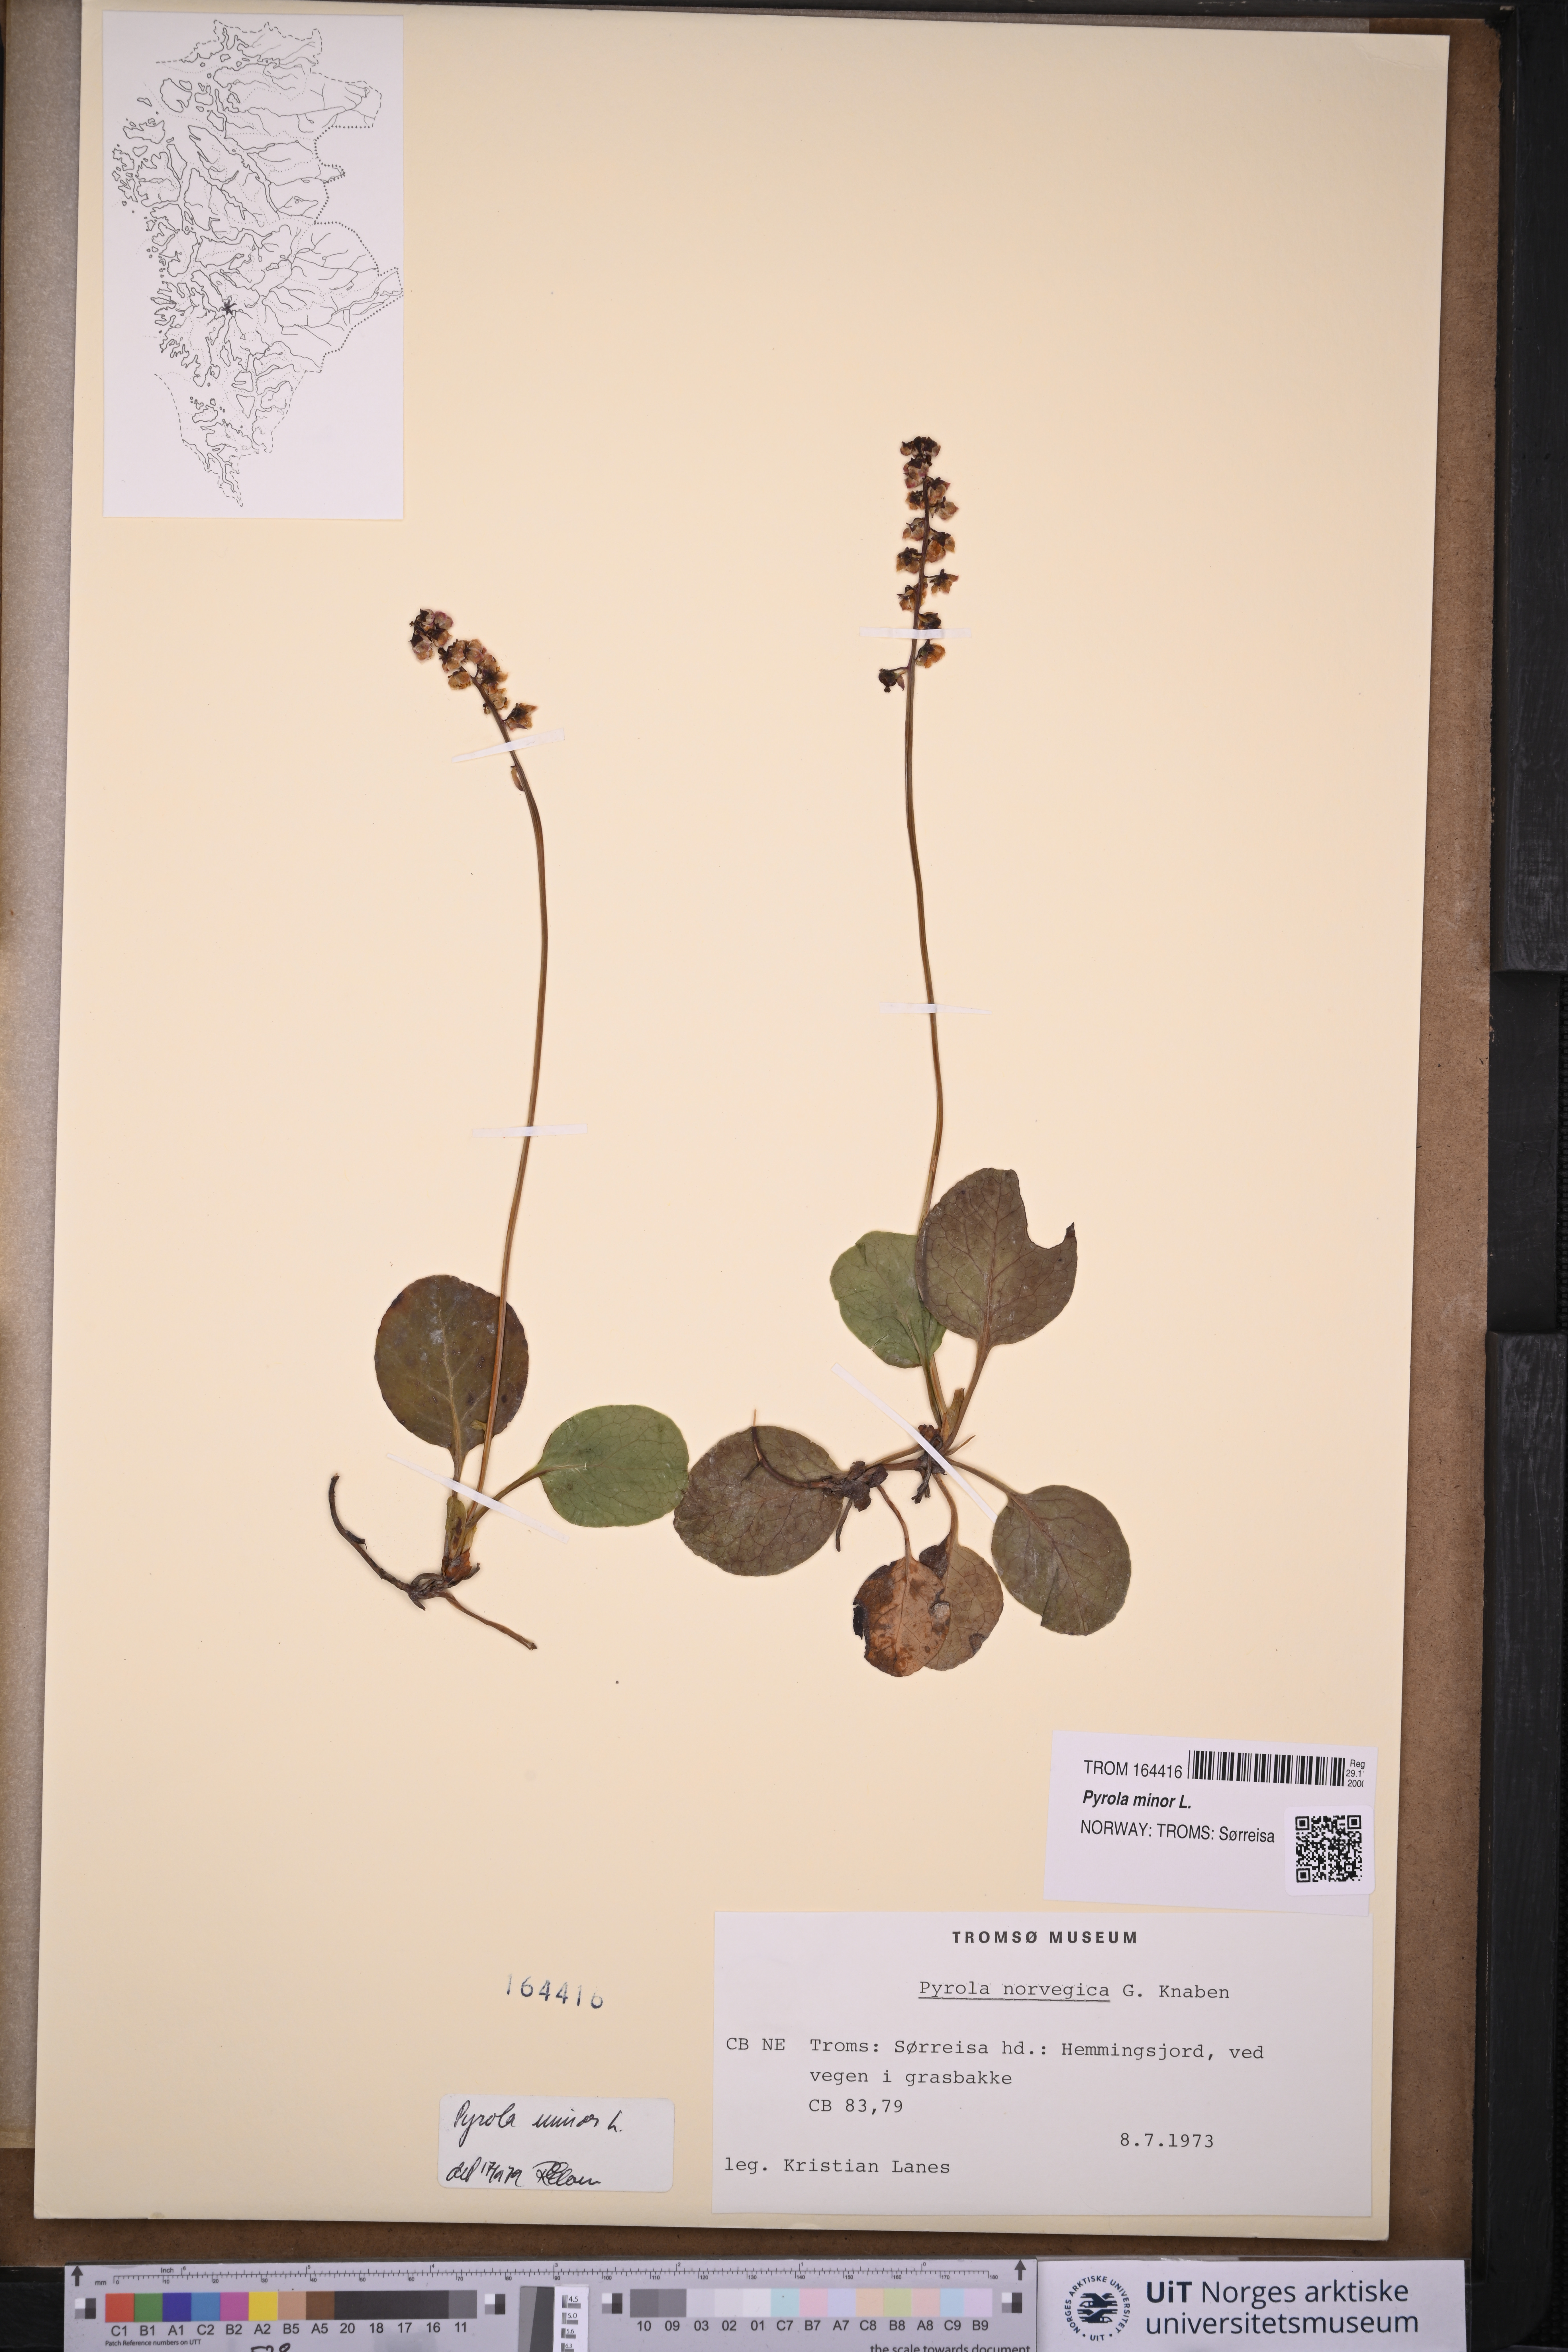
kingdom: Plantae
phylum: Tracheophyta
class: Magnoliopsida
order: Ericales
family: Ericaceae
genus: Pyrola
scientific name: Pyrola minor
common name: Common wintergreen
